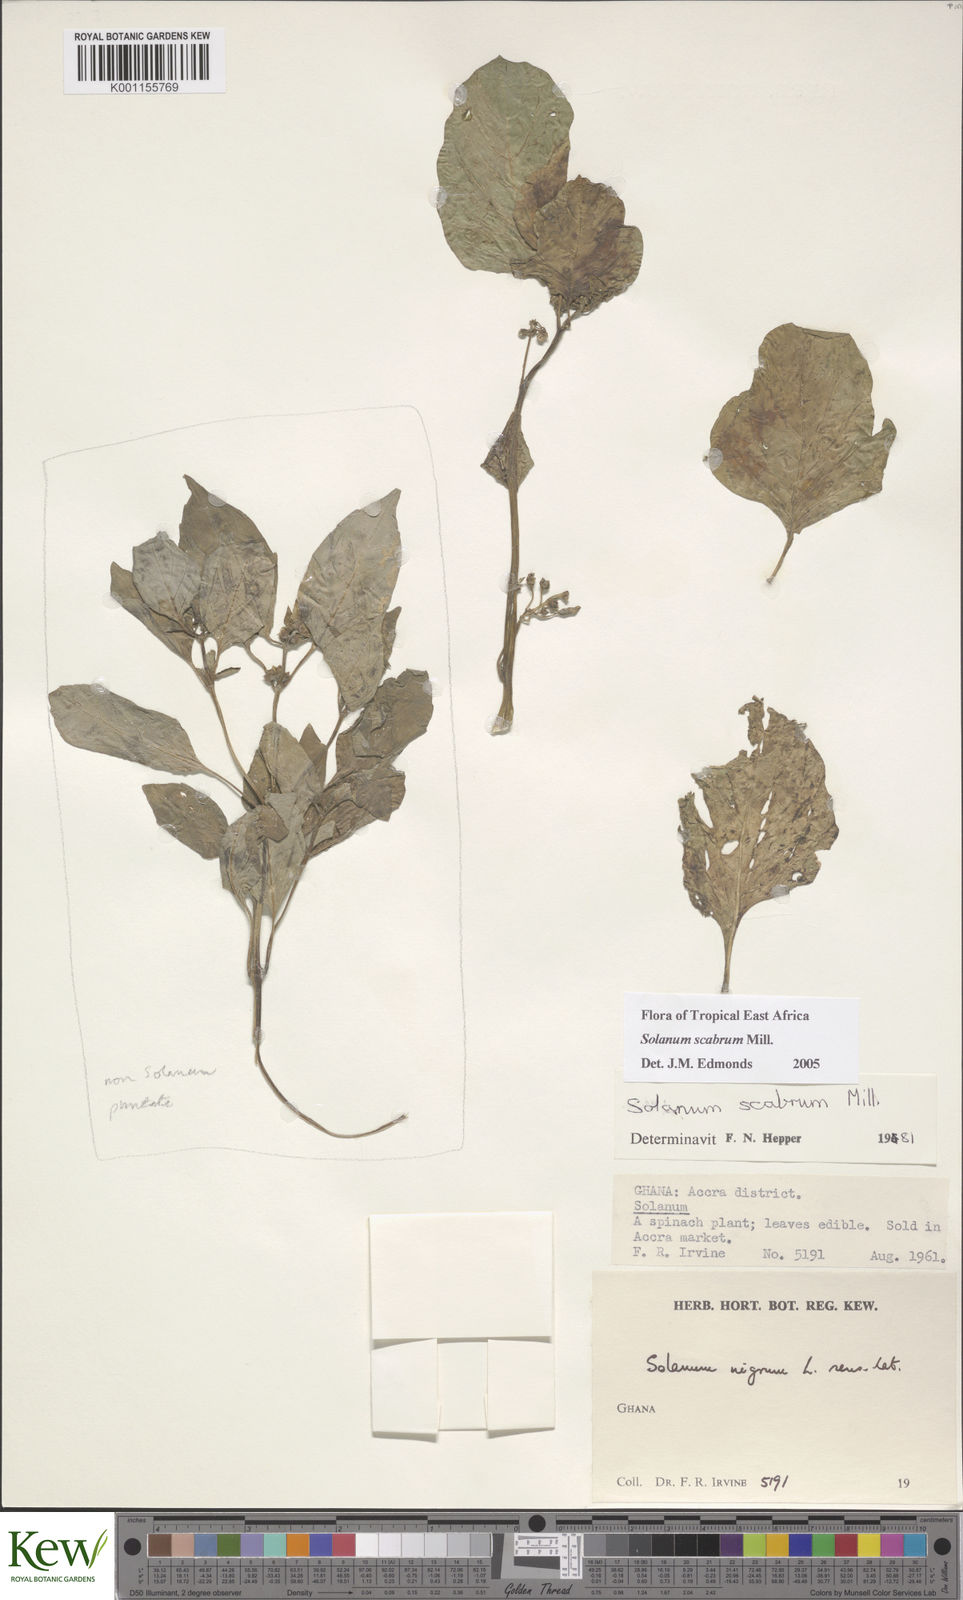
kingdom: Plantae
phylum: Tracheophyta
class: Magnoliopsida
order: Solanales
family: Solanaceae
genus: Solanum
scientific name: Solanum scabrum
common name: Garden-huckleberry
